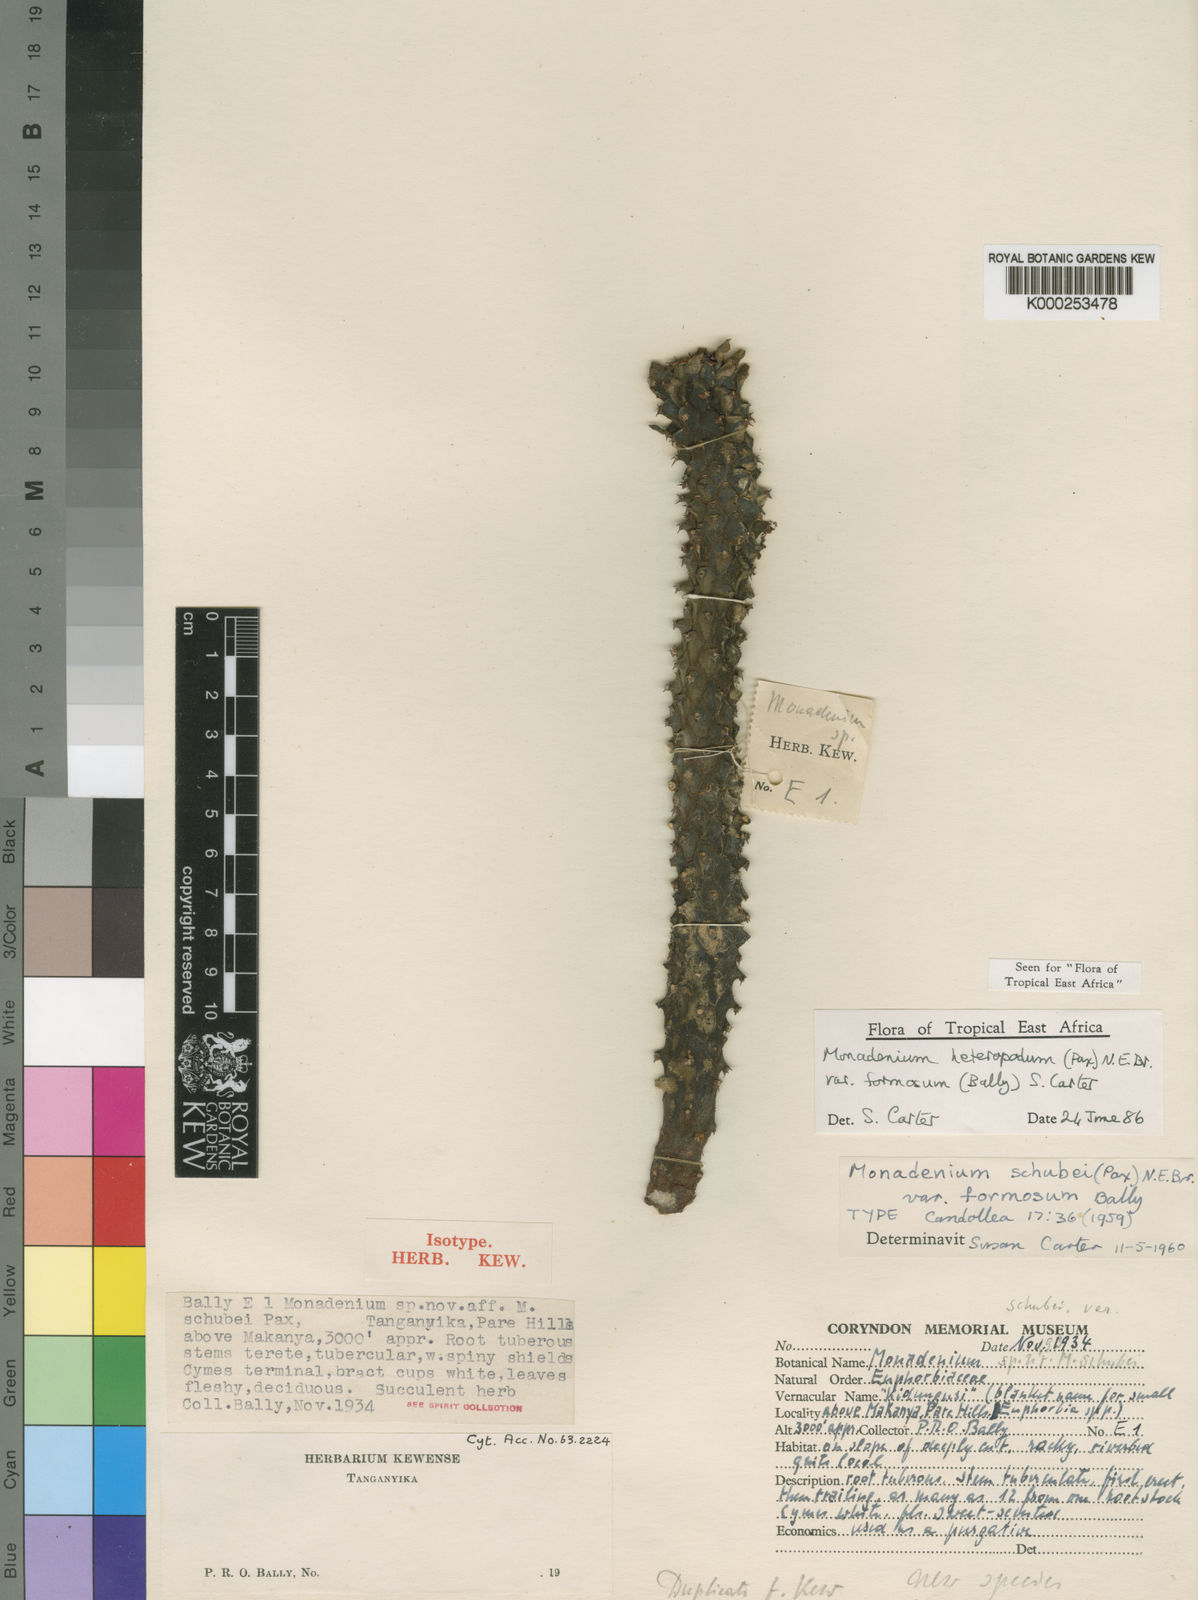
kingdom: Plantae
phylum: Tracheophyta
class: Magnoliopsida
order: Malpighiales
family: Euphorbiaceae
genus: Euphorbia
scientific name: Euphorbia heteropodum
